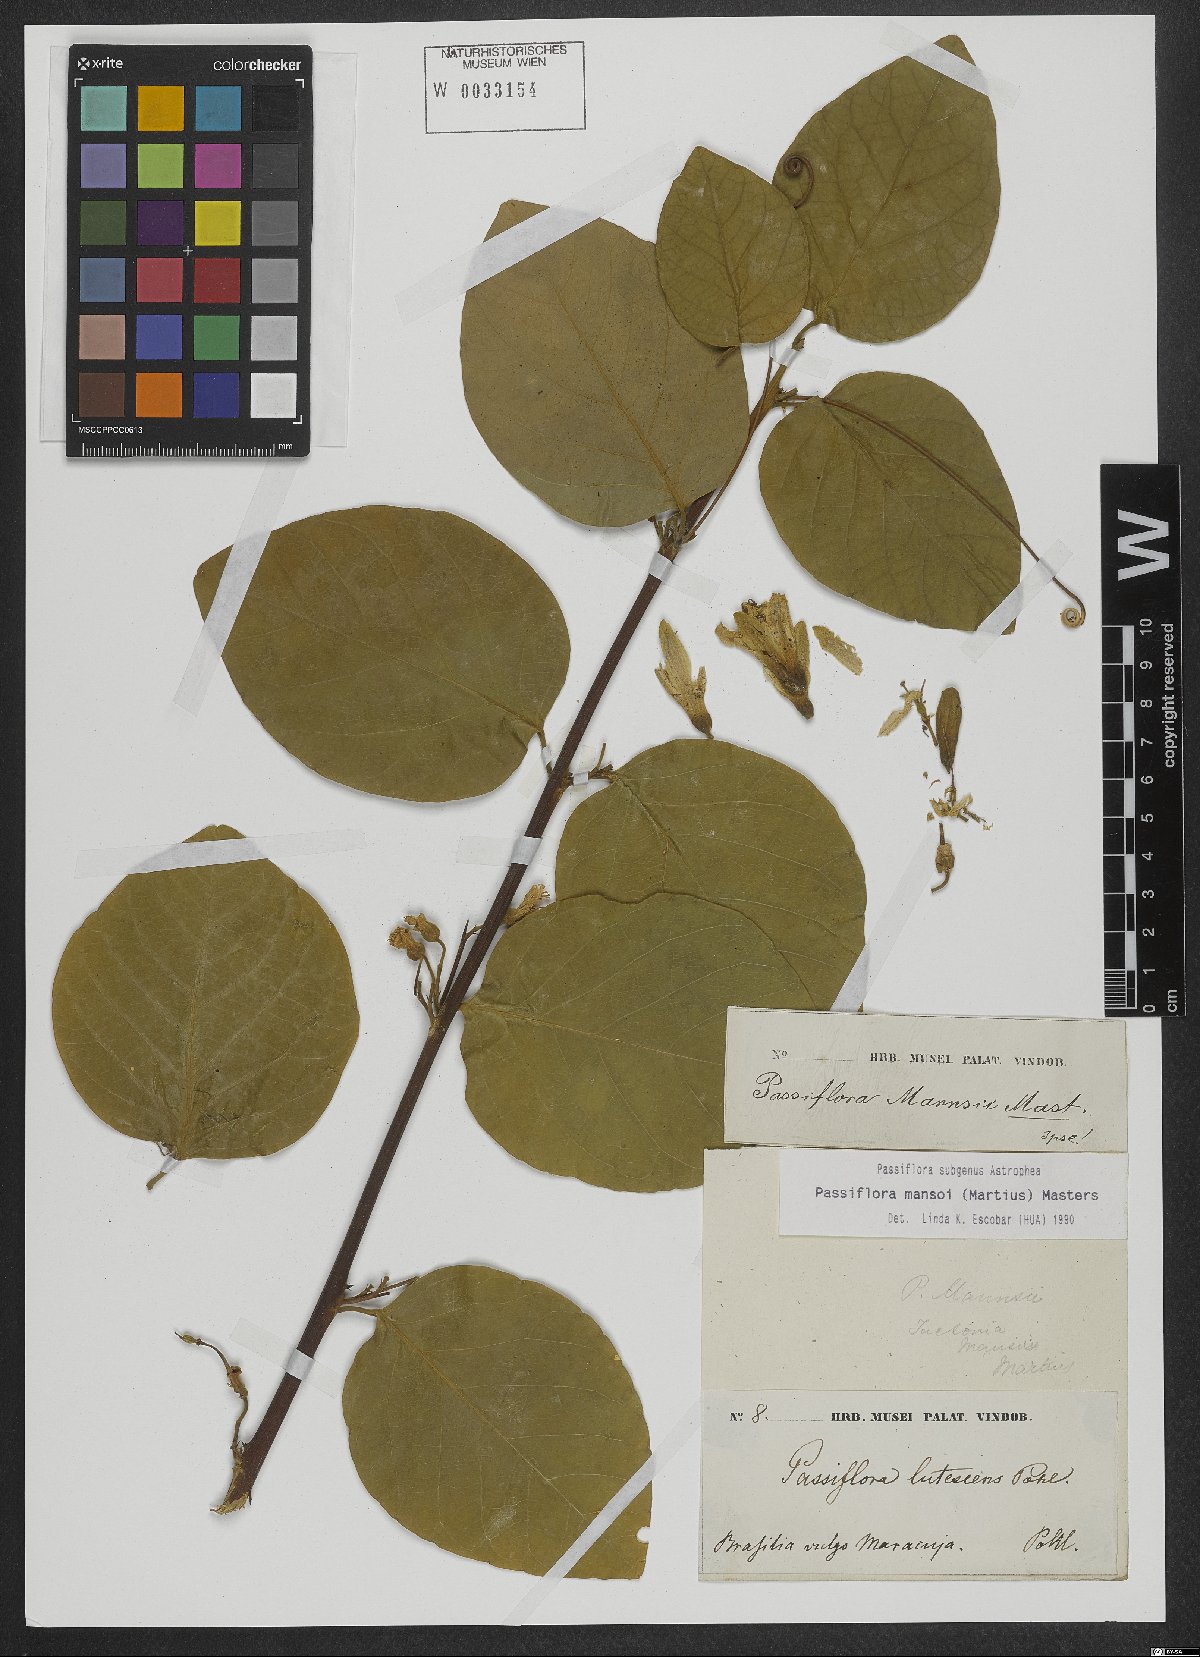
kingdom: Plantae
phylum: Tracheophyta
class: Magnoliopsida
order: Malpighiales
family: Passifloraceae
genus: Passiflora
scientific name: Passiflora mansoi
